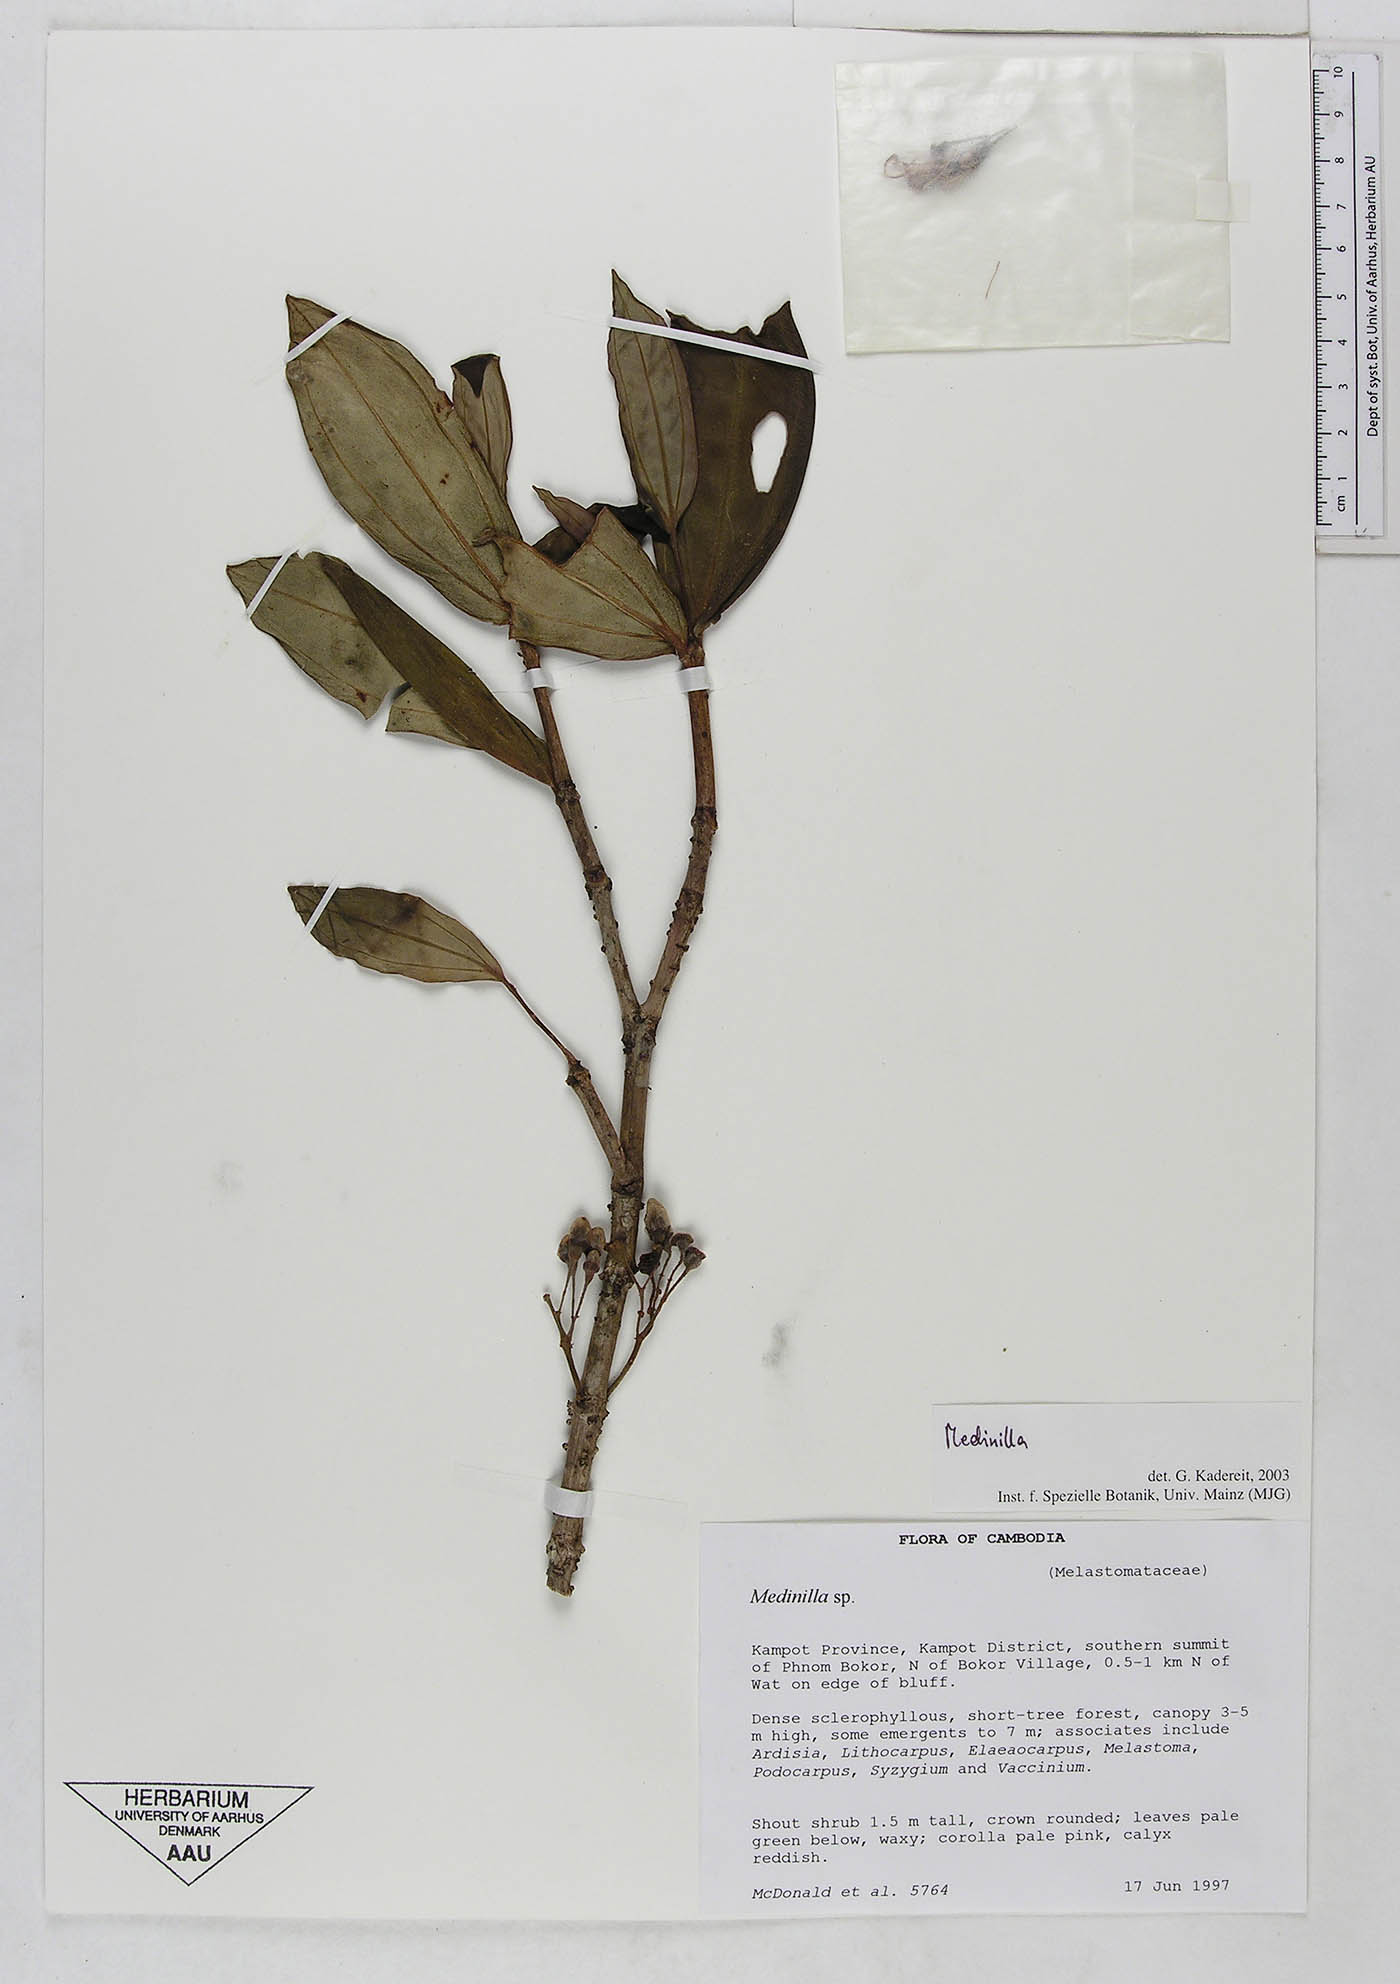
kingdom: Plantae
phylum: Tracheophyta
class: Magnoliopsida
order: Myrtales
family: Melastomataceae
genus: Medinilla
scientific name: Medinilla
